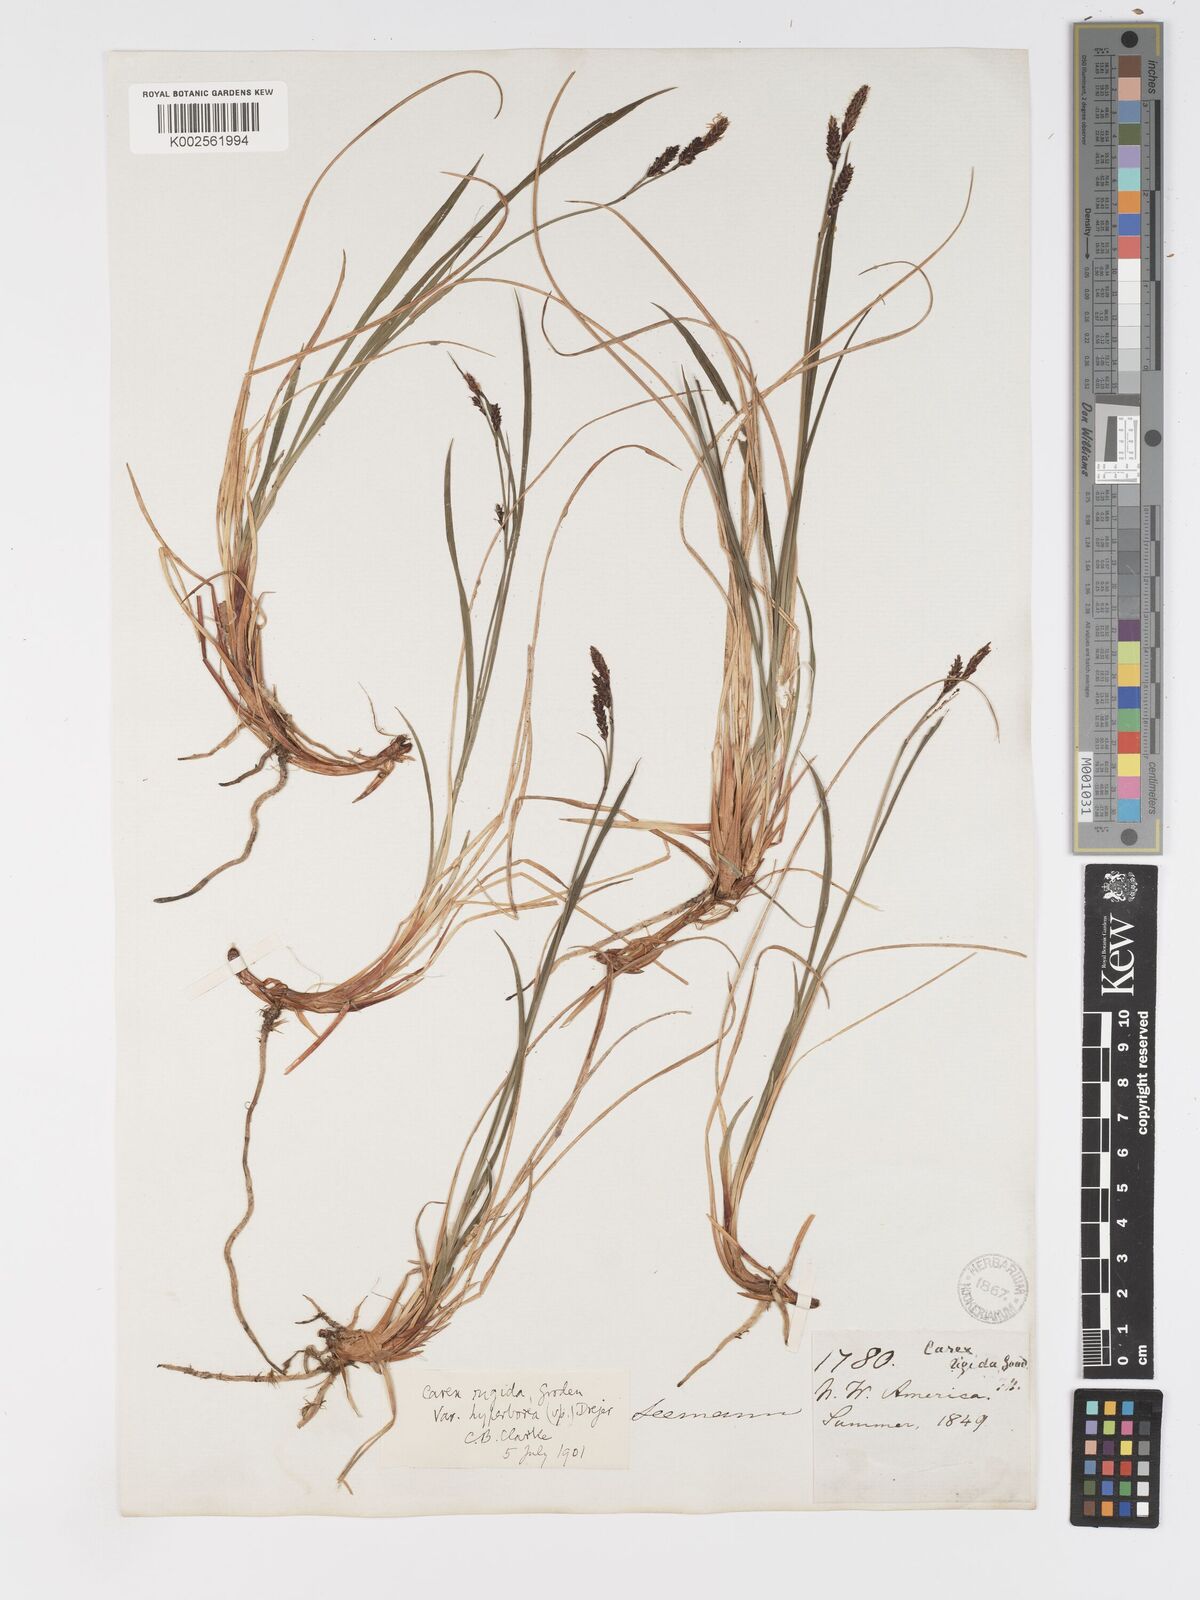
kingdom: Plantae
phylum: Tracheophyta
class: Liliopsida
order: Poales
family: Cyperaceae
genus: Carex
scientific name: Carex bigelowii
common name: Stiff sedge
